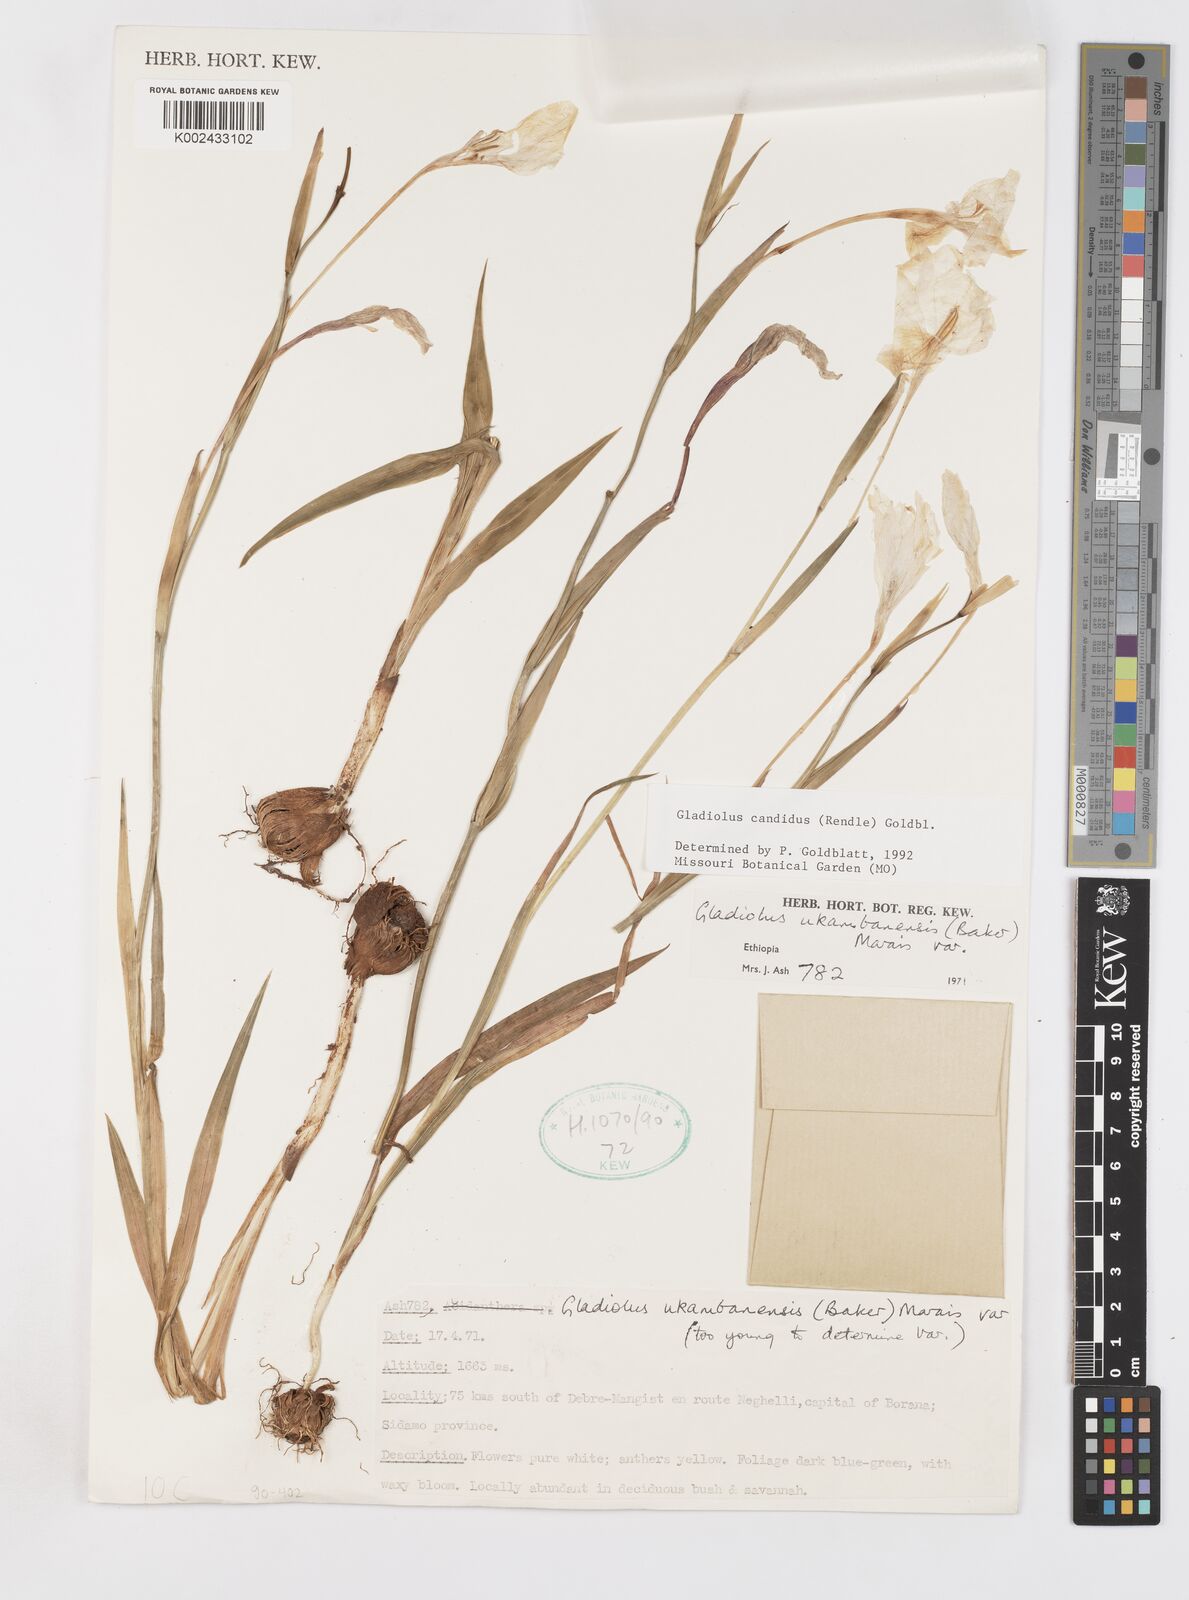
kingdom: Plantae
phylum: Tracheophyta
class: Liliopsida
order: Asparagales
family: Iridaceae
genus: Gladiolus
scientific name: Gladiolus candidus
